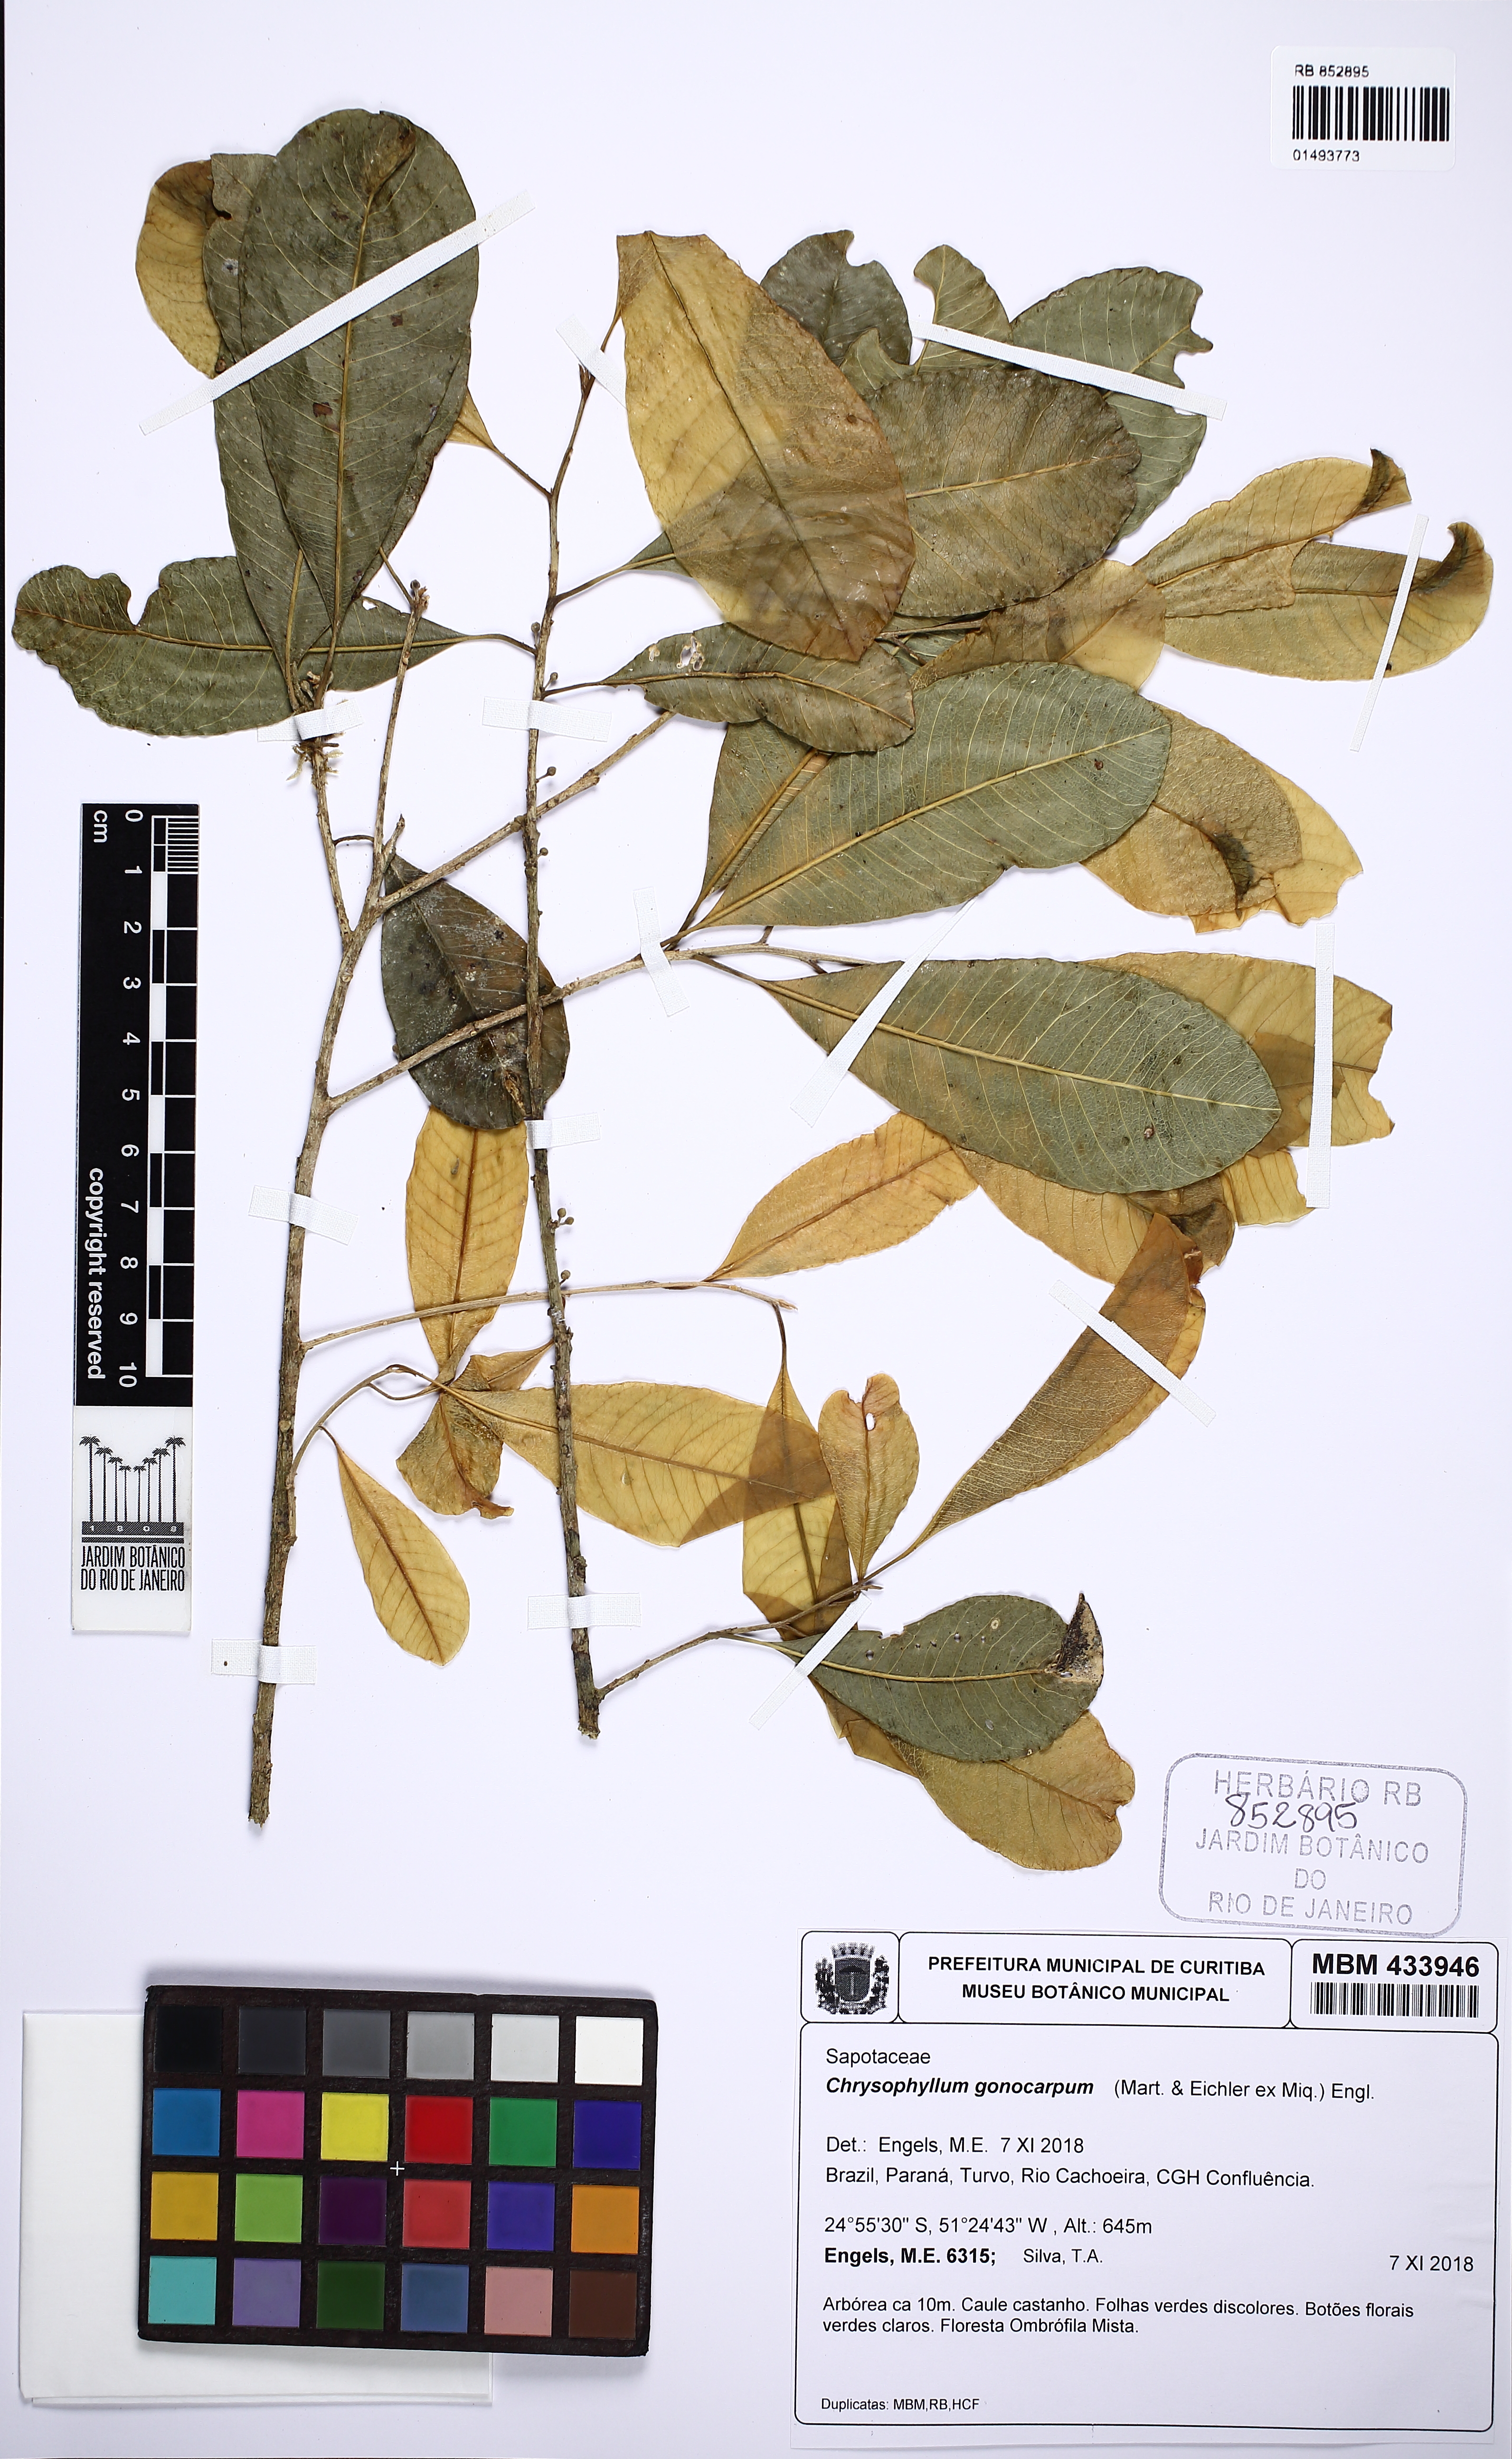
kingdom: Plantae
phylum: Tracheophyta
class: Magnoliopsida
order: Ericales
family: Sapotaceae
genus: Chrysophyllum
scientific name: Chrysophyllum gonocarpum
